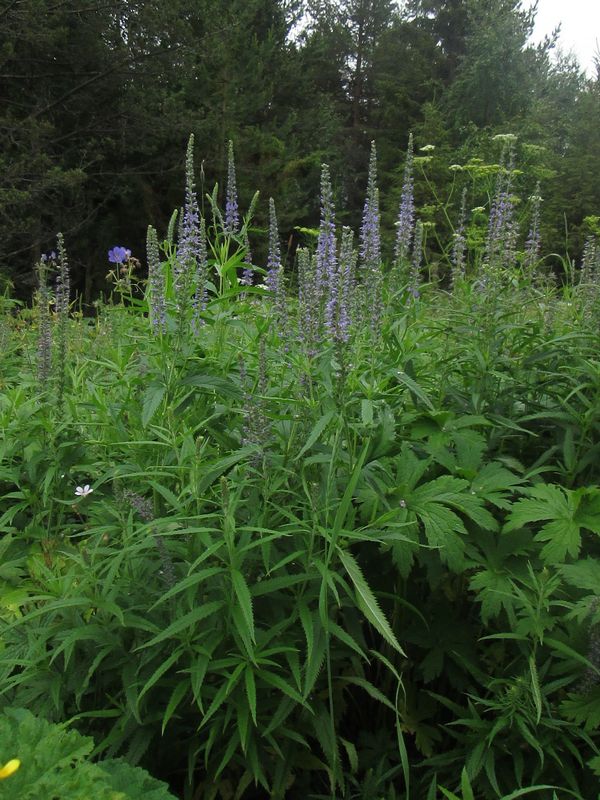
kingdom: Plantae
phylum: Tracheophyta
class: Magnoliopsida
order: Lamiales
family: Plantaginaceae
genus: Veronica
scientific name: Veronica longifolia
